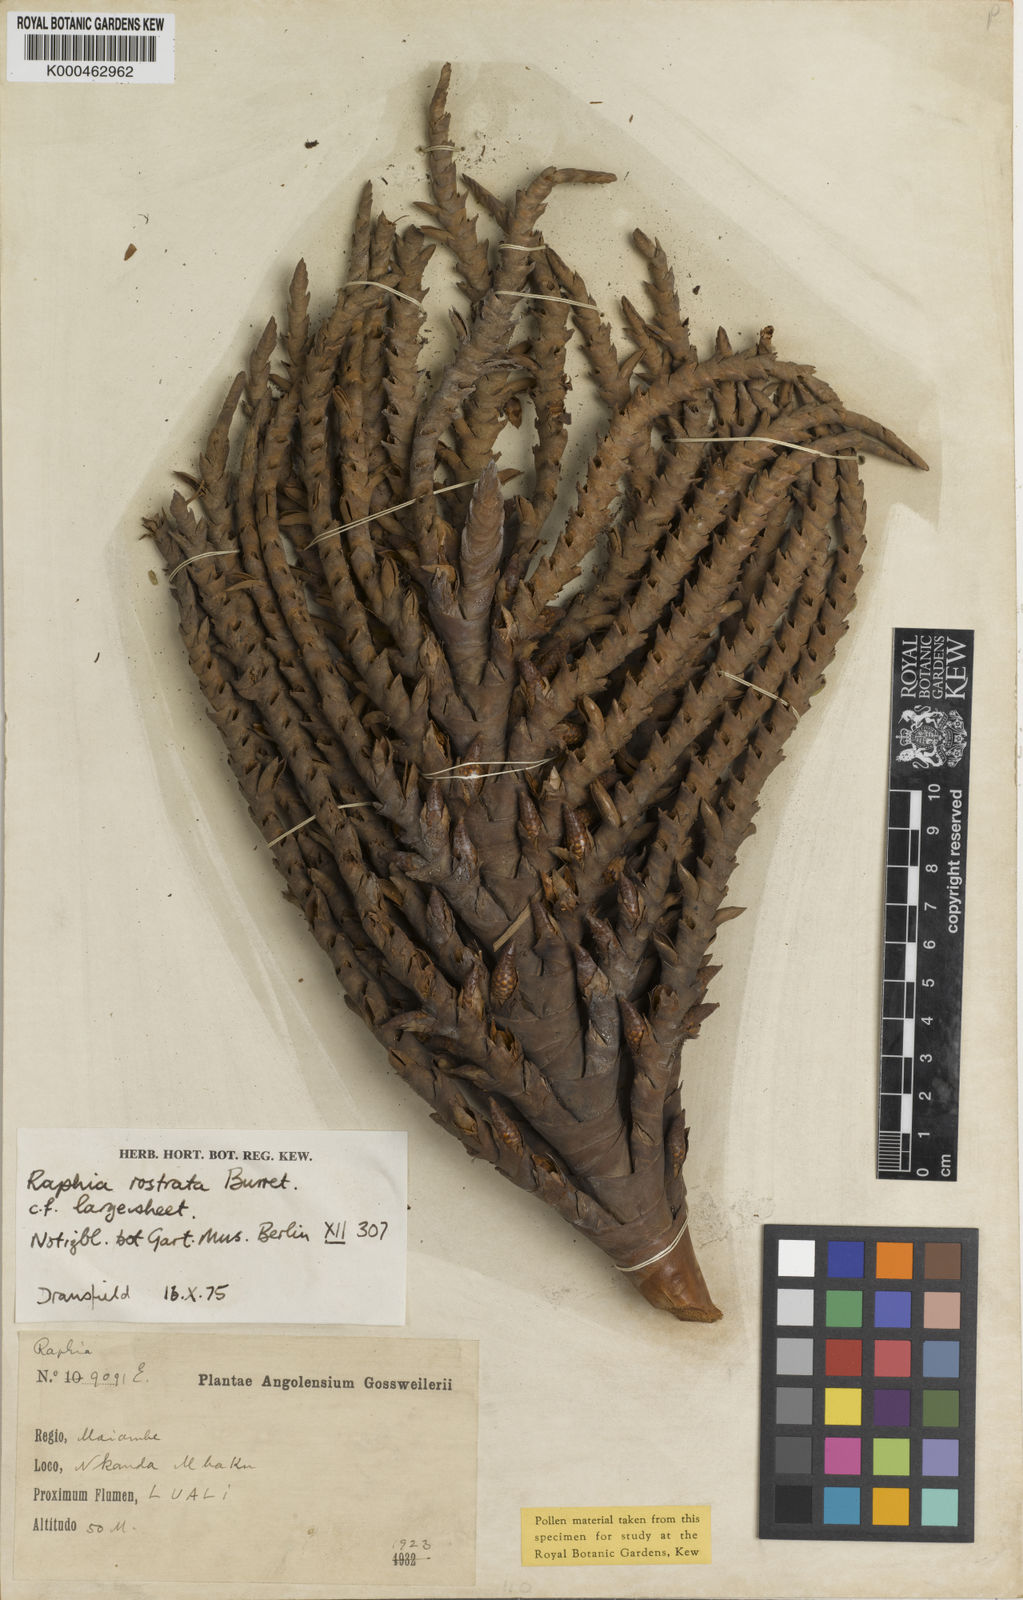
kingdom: Plantae
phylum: Tracheophyta
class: Liliopsida
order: Arecales
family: Arecaceae
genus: Raphia
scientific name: Raphia rostrata
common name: Raphia palm
